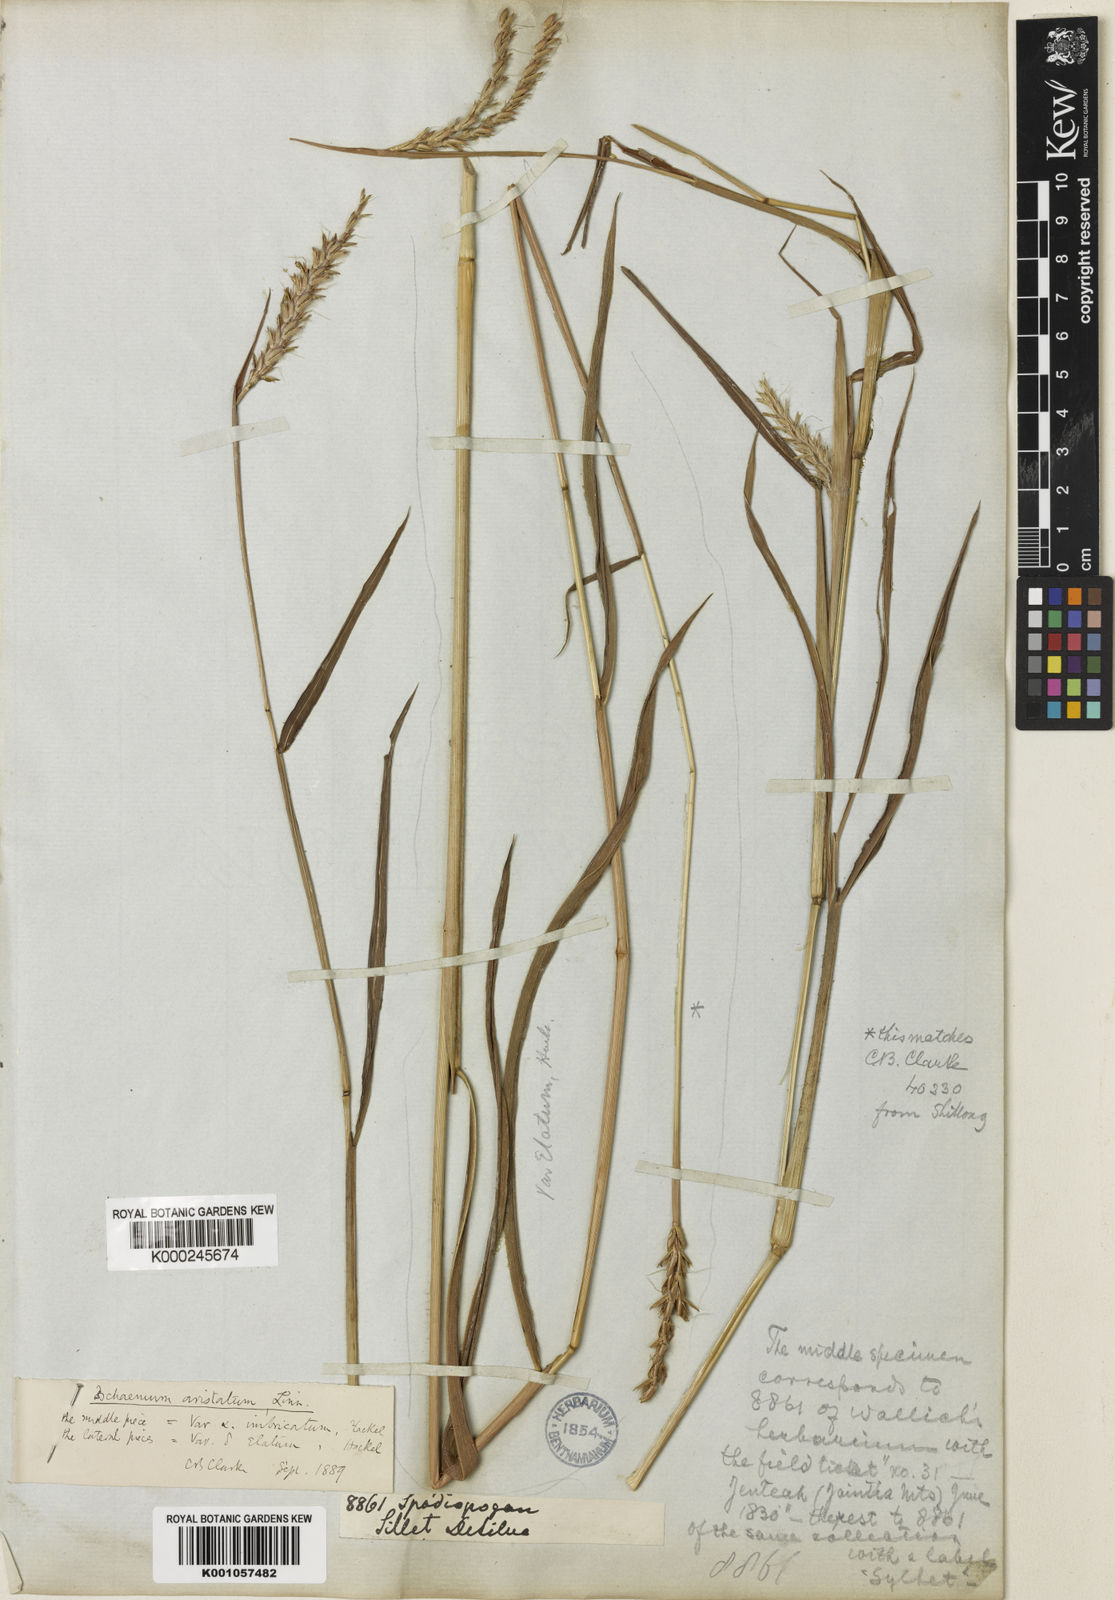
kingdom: Plantae
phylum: Tracheophyta
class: Liliopsida
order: Poales
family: Poaceae
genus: Ischaemum
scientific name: Ischaemum barbatum
